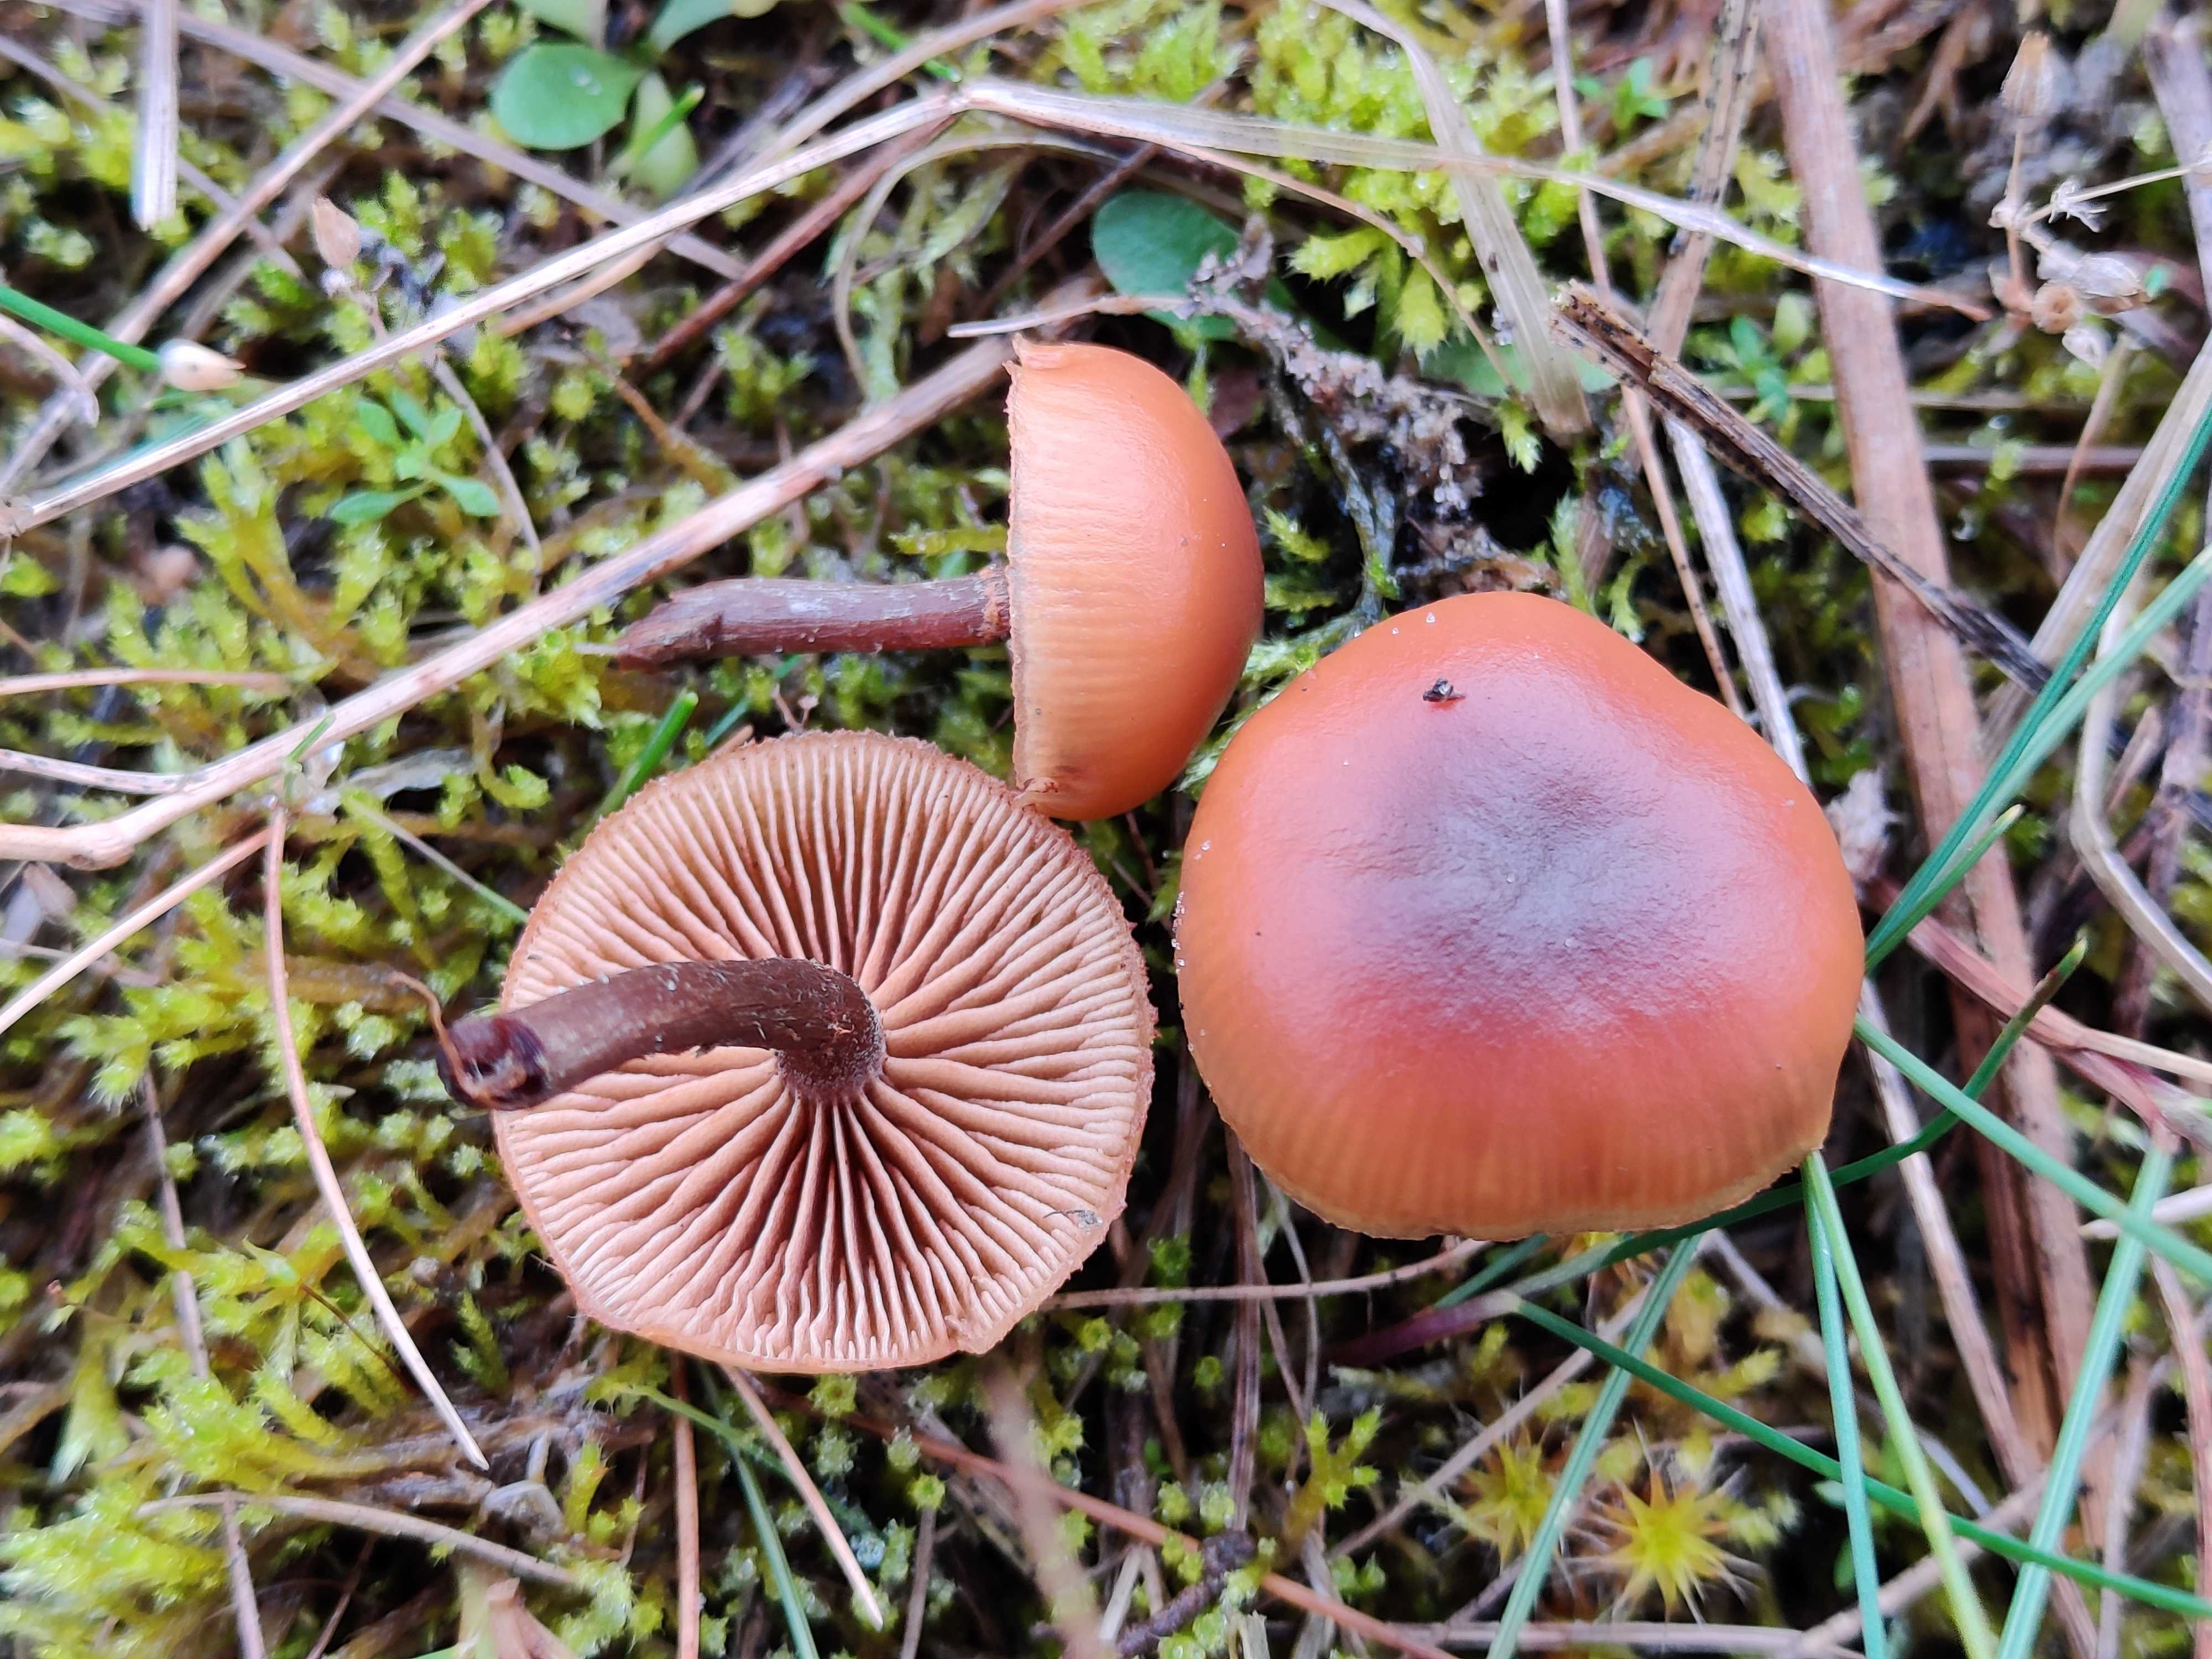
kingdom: Fungi
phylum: Basidiomycota
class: Agaricomycetes
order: Agaricales
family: Hymenogastraceae
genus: Galerina
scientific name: Galerina
